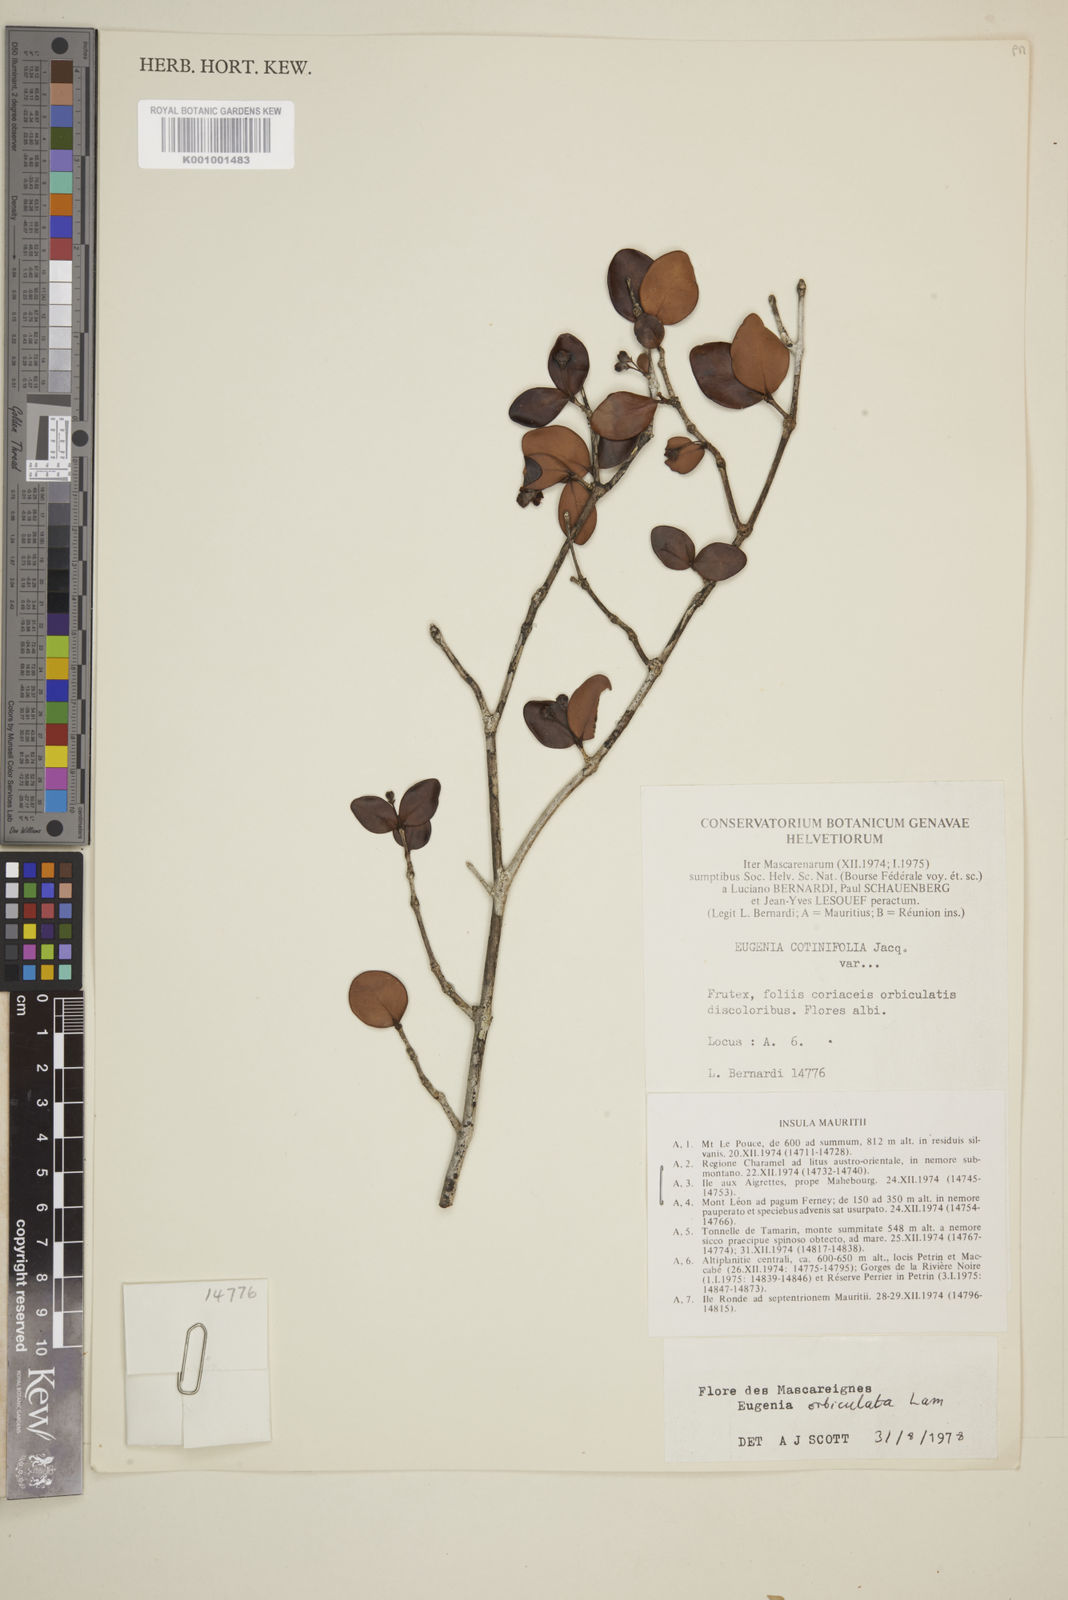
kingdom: Plantae
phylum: Tracheophyta
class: Magnoliopsida
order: Myrtales
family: Myrtaceae
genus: Eugenia
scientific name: Eugenia orbiculata
